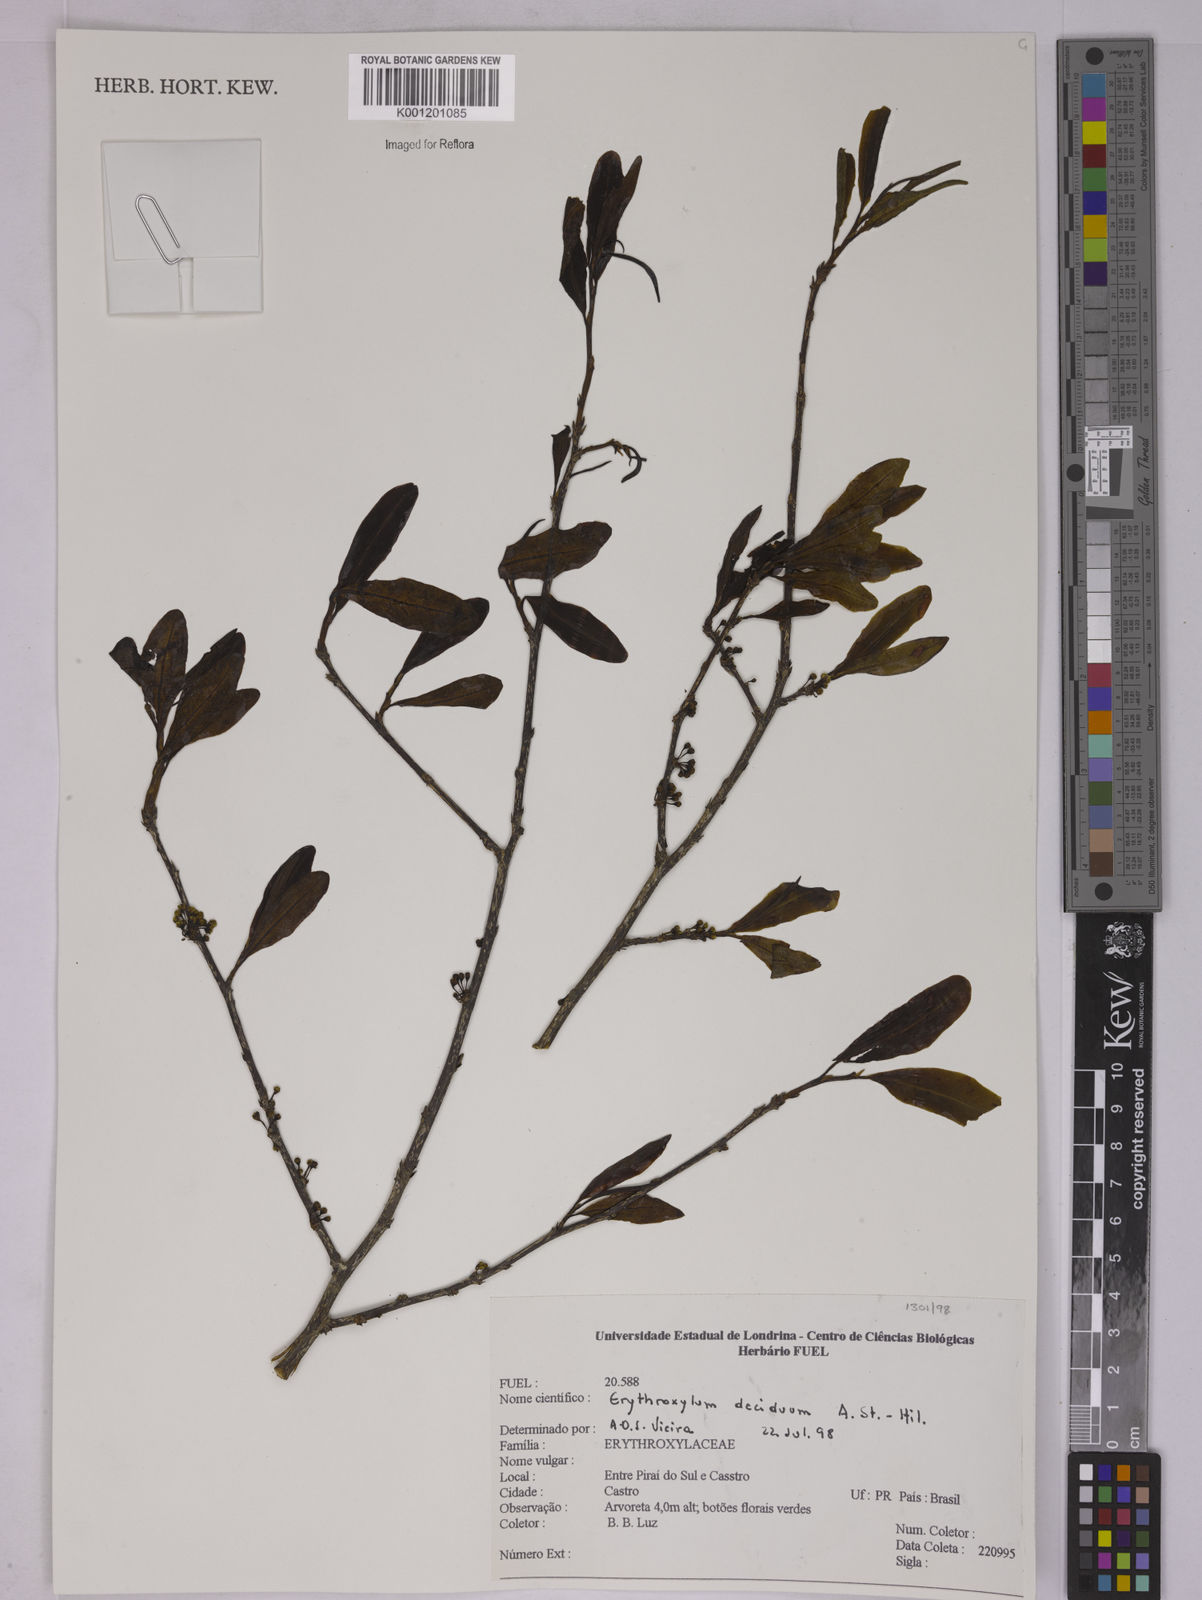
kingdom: Plantae
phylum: Tracheophyta
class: Magnoliopsida
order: Malpighiales
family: Erythroxylaceae
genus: Erythroxylum
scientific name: Erythroxylum deciduum
